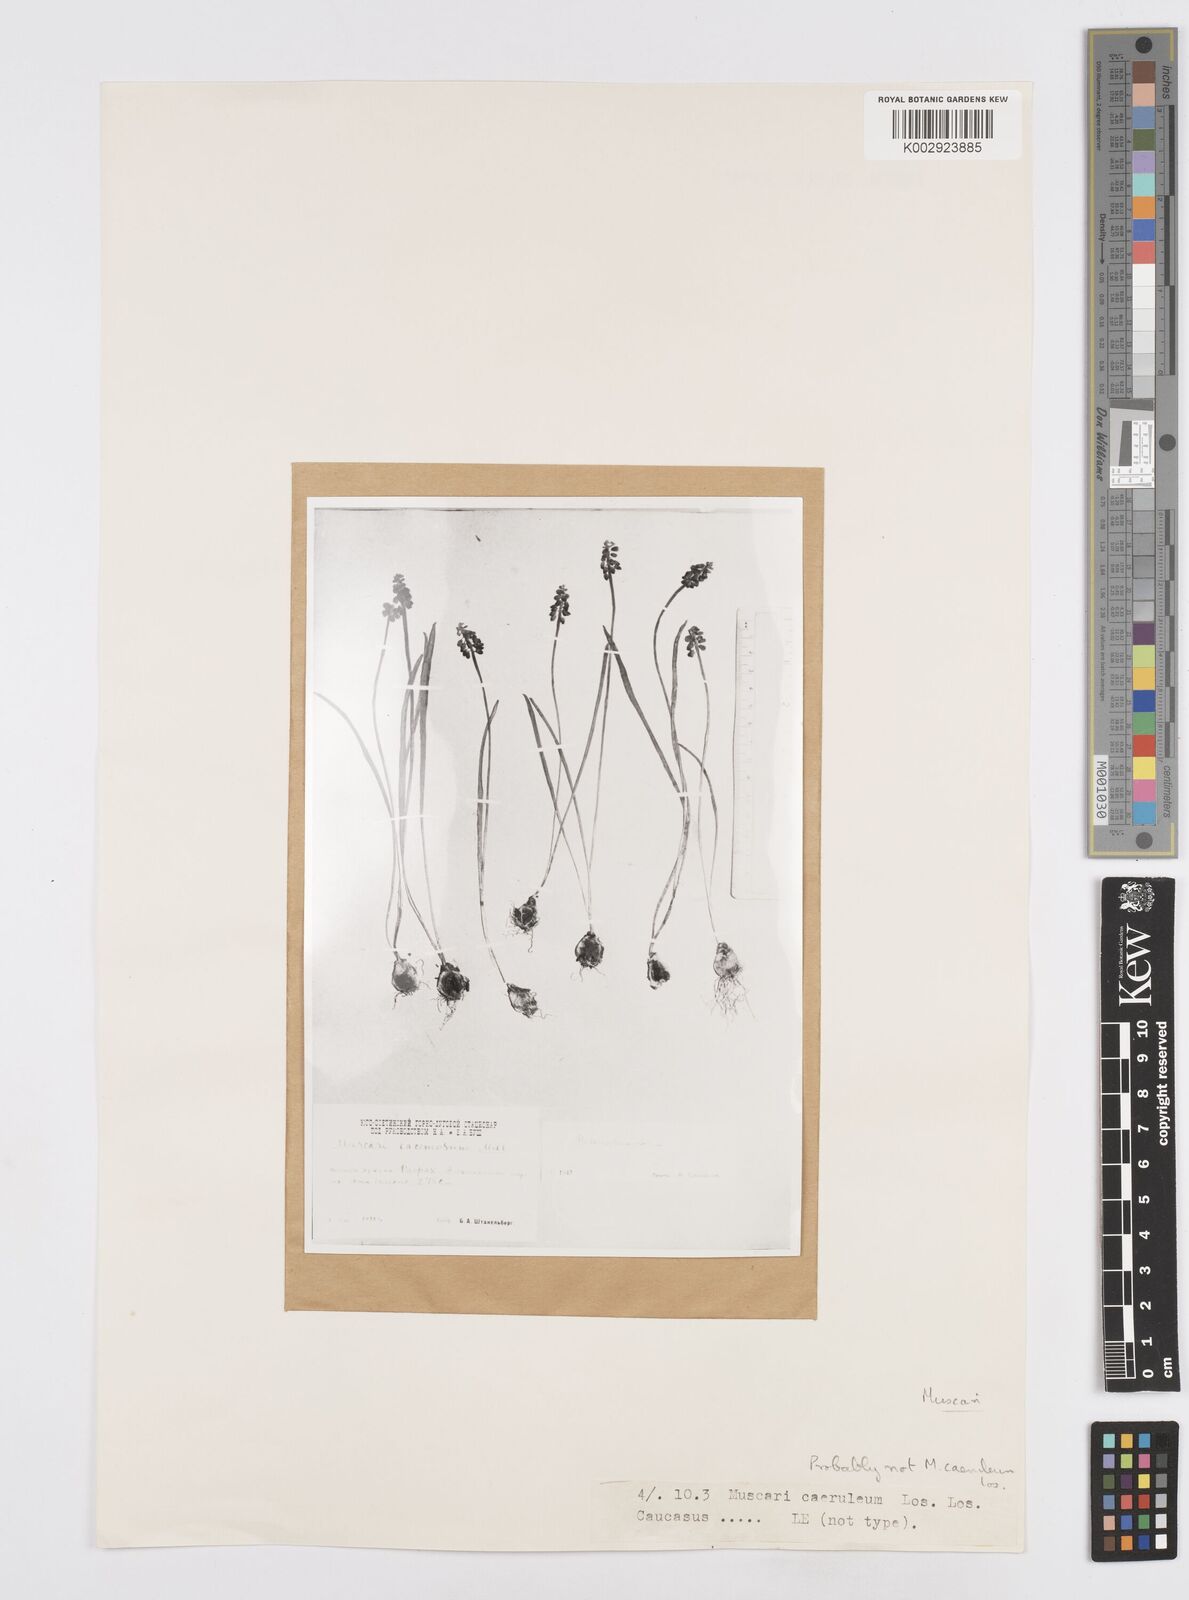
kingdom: Plantae
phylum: Tracheophyta
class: Liliopsida
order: Asparagales
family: Asparagaceae
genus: Muscari
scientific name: Muscari
